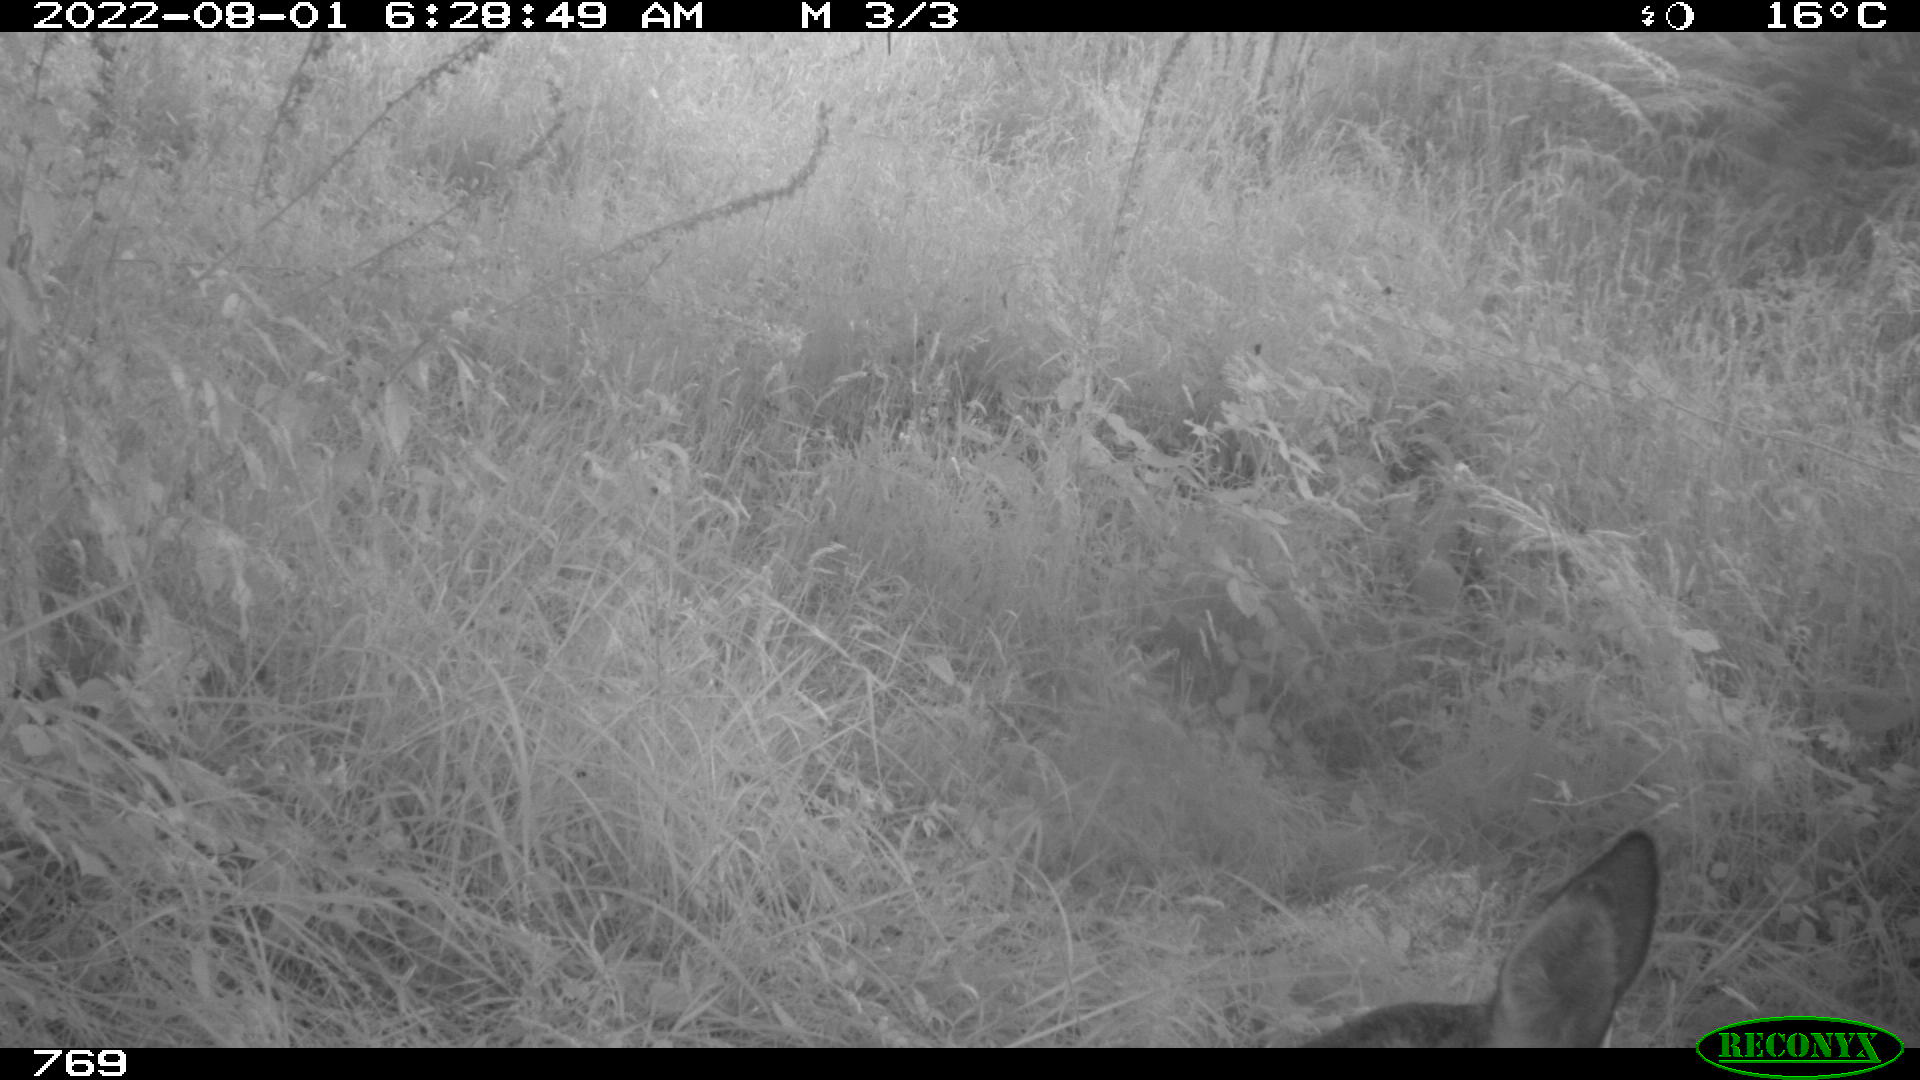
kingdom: Animalia
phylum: Chordata
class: Mammalia
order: Artiodactyla
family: Cervidae
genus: Capreolus
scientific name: Capreolus capreolus
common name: Western roe deer
